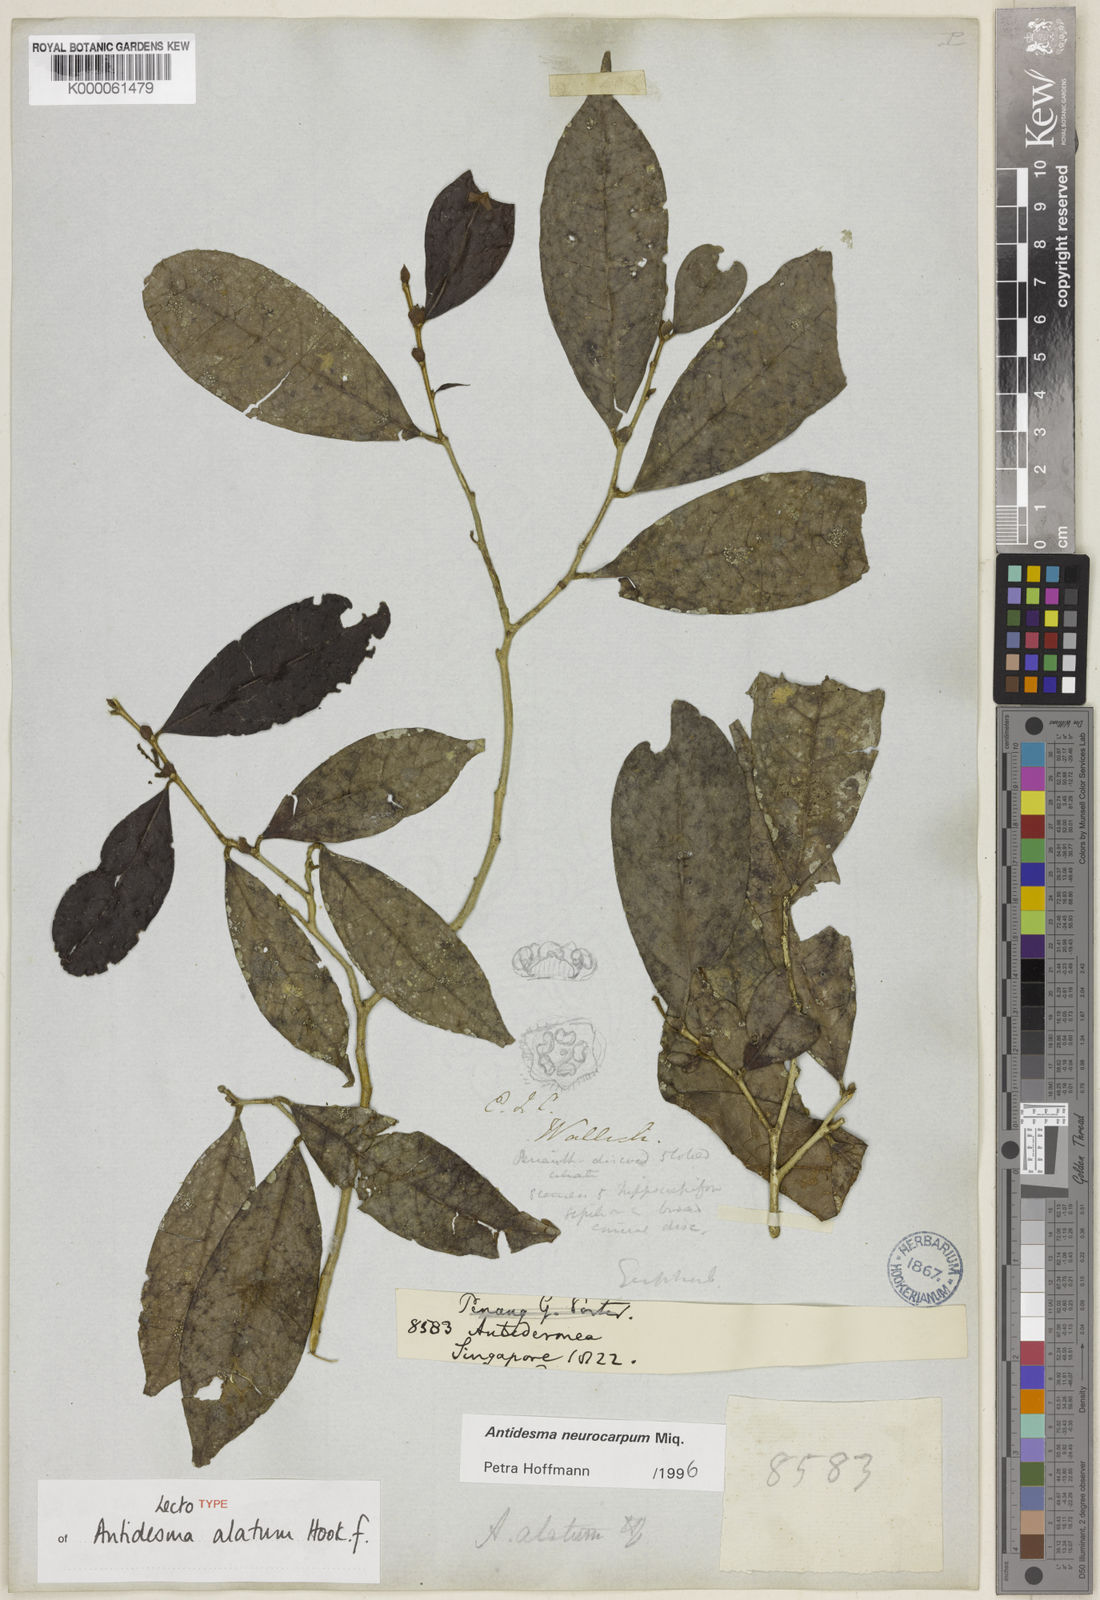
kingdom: Plantae
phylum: Tracheophyta
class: Magnoliopsida
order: Malpighiales
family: Phyllanthaceae
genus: Antidesma
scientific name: Antidesma neurocarpum
